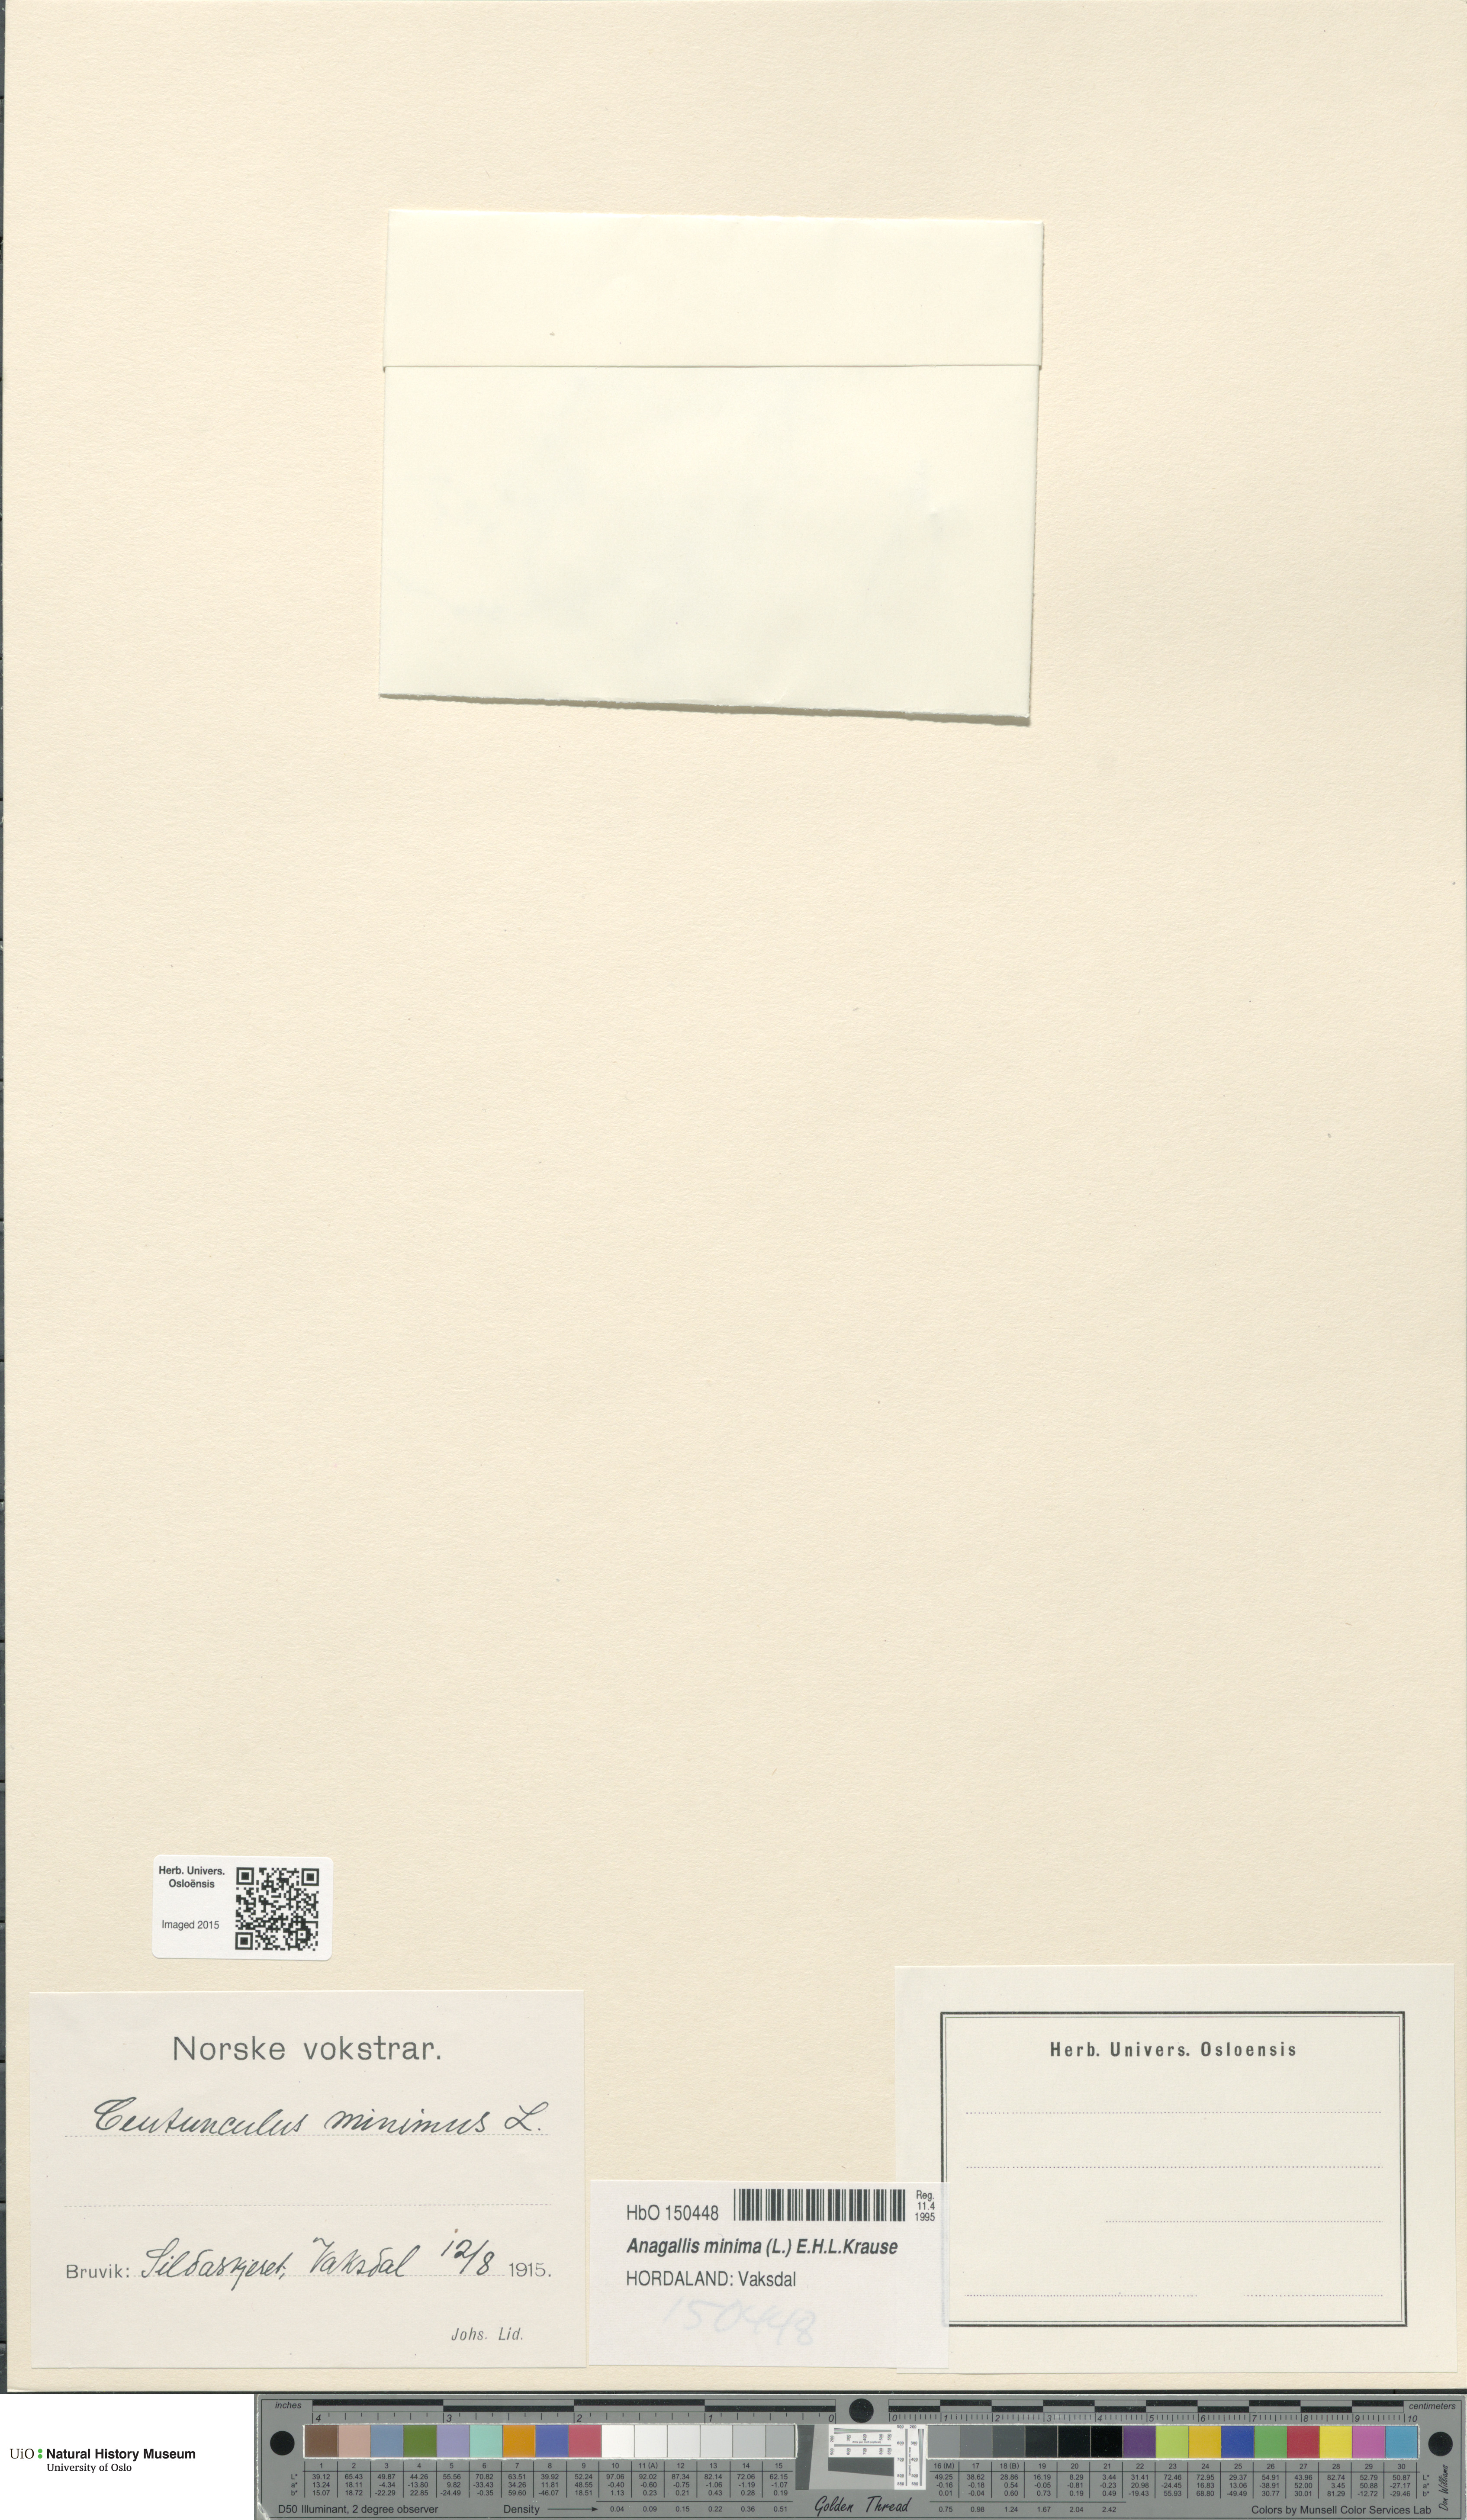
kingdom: Plantae
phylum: Tracheophyta
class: Magnoliopsida
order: Ericales
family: Primulaceae
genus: Lysimachia
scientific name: Lysimachia minima
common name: Chaffweed
